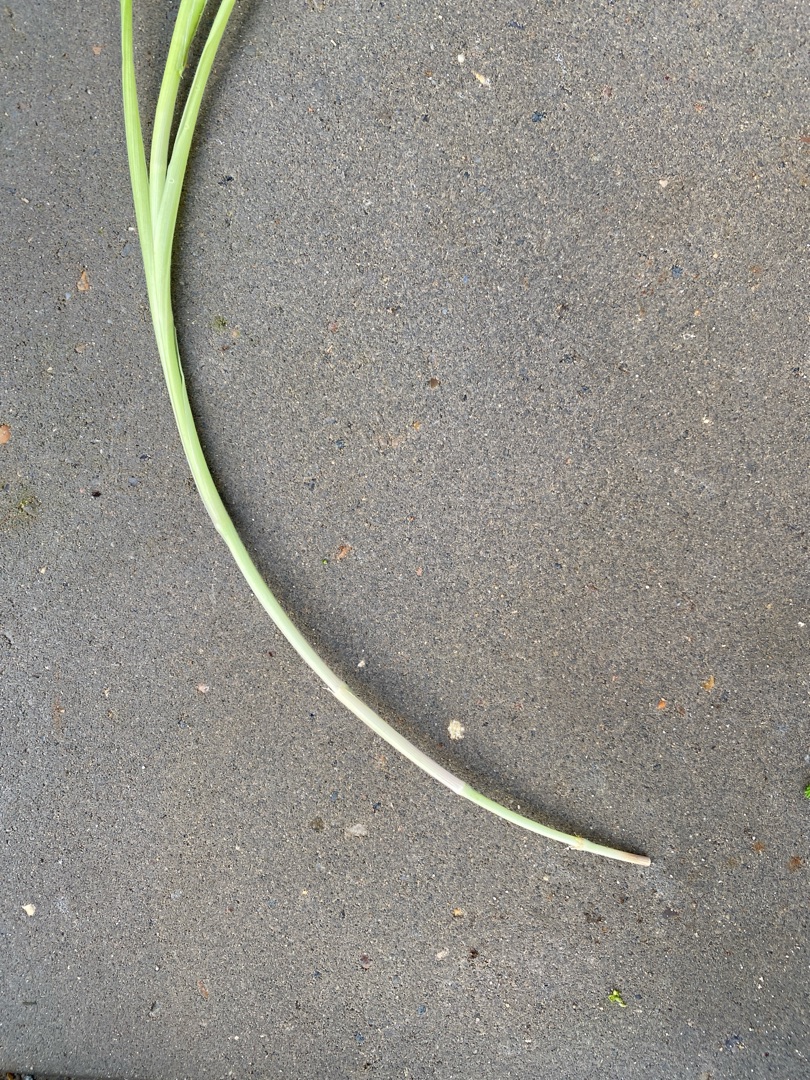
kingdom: Plantae
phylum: Tracheophyta
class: Liliopsida
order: Poales
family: Poaceae
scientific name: Poaceae
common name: Græsfamilien
